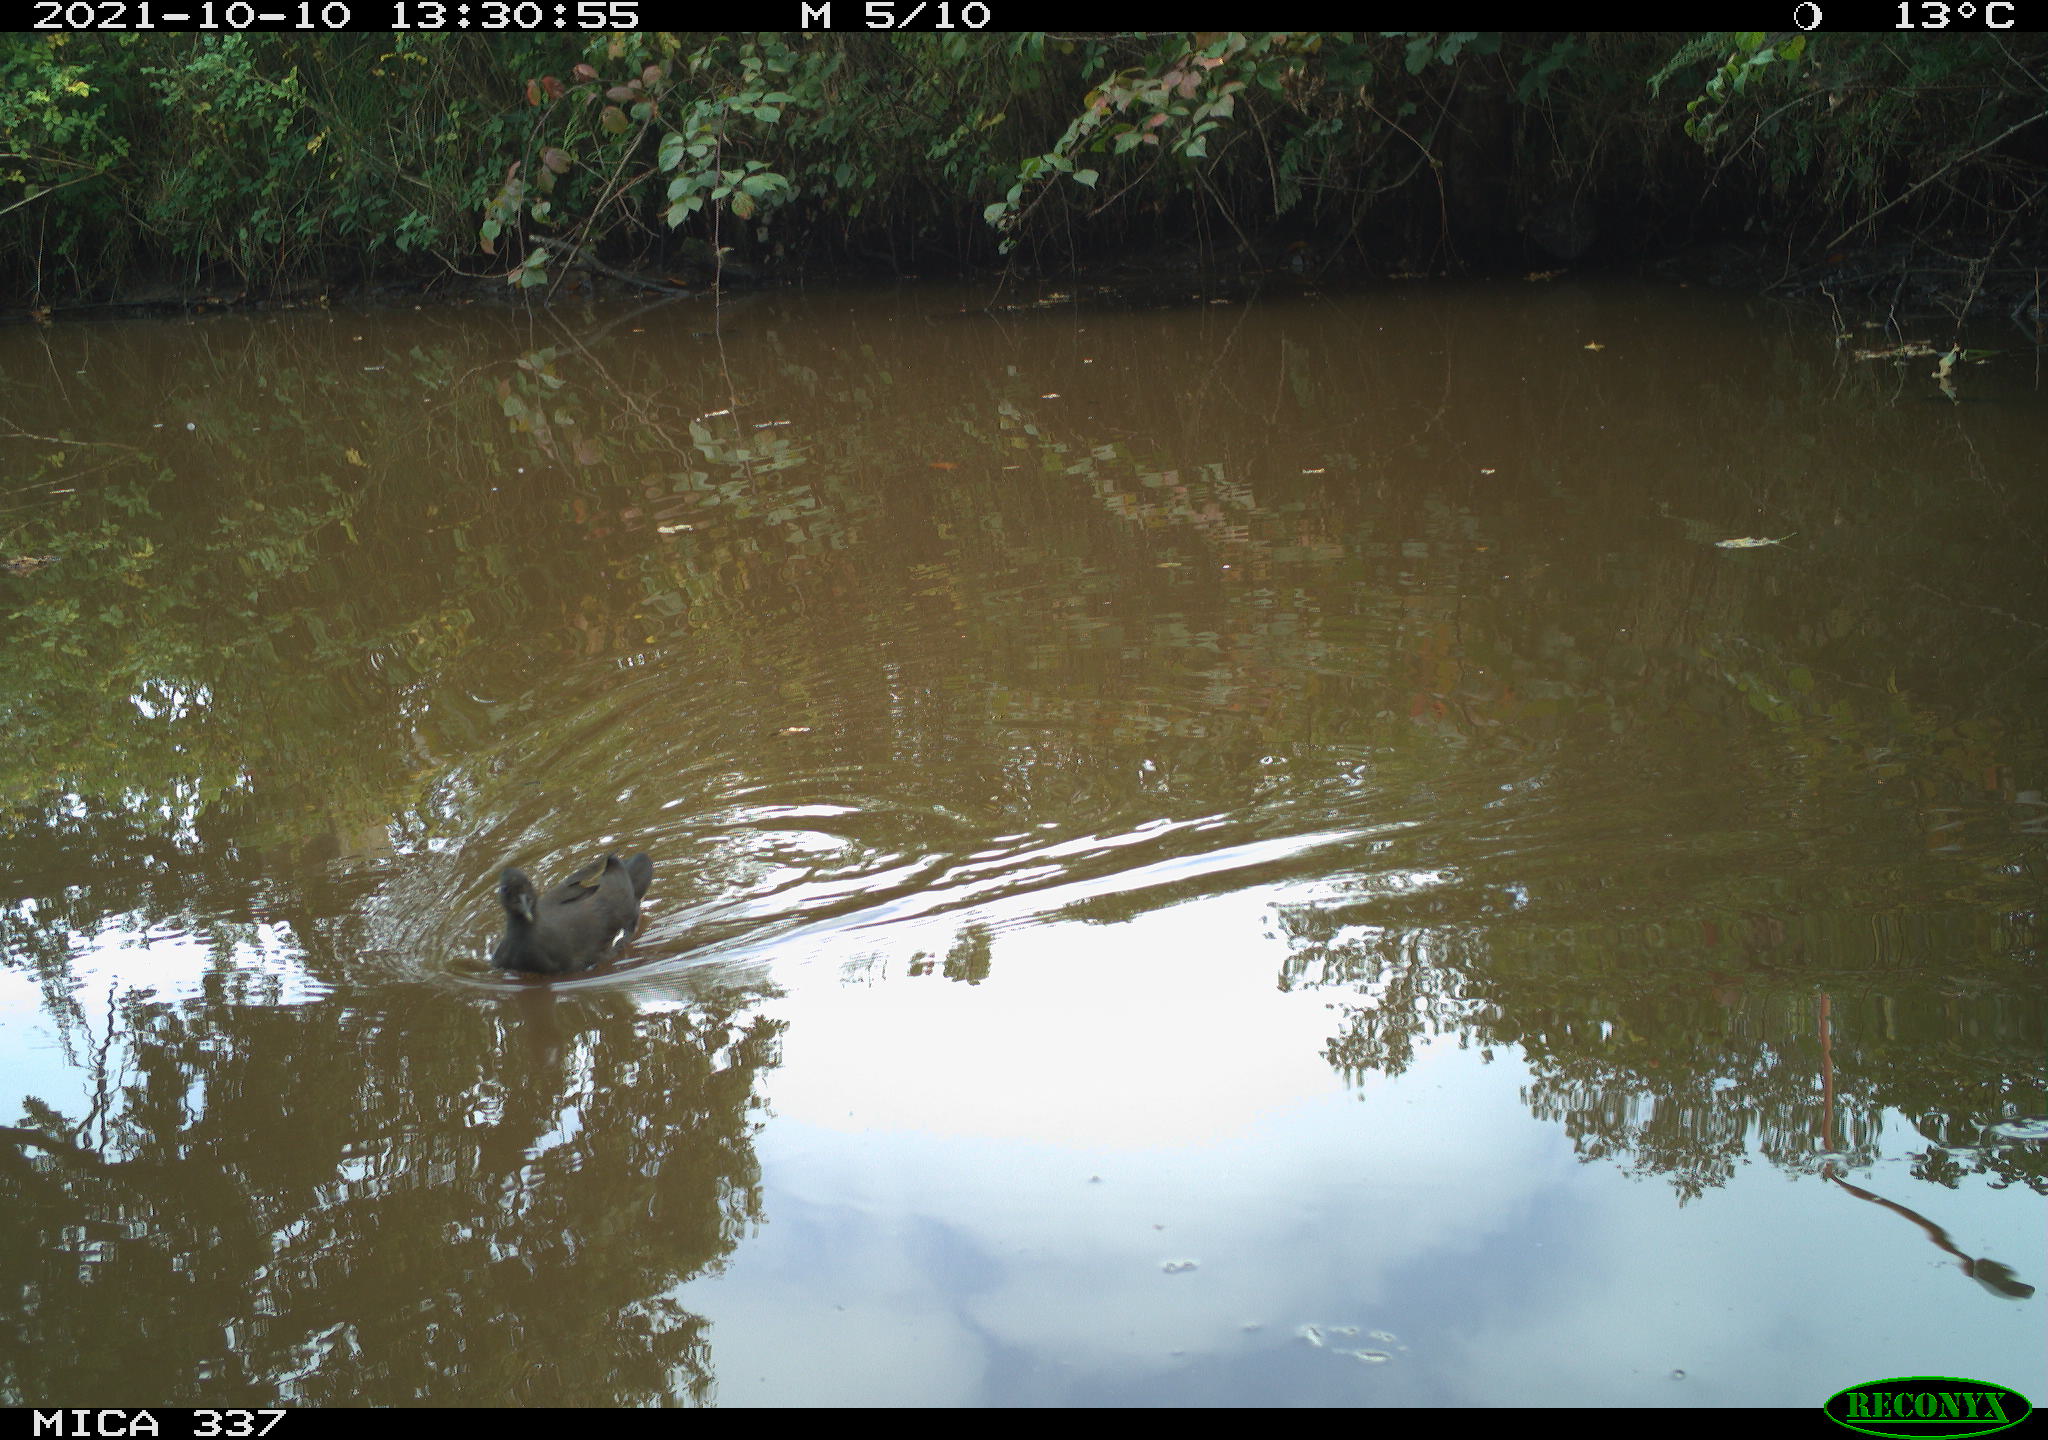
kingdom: Animalia
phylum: Chordata
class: Aves
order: Gruiformes
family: Rallidae
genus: Gallinula
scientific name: Gallinula chloropus
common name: Common moorhen
